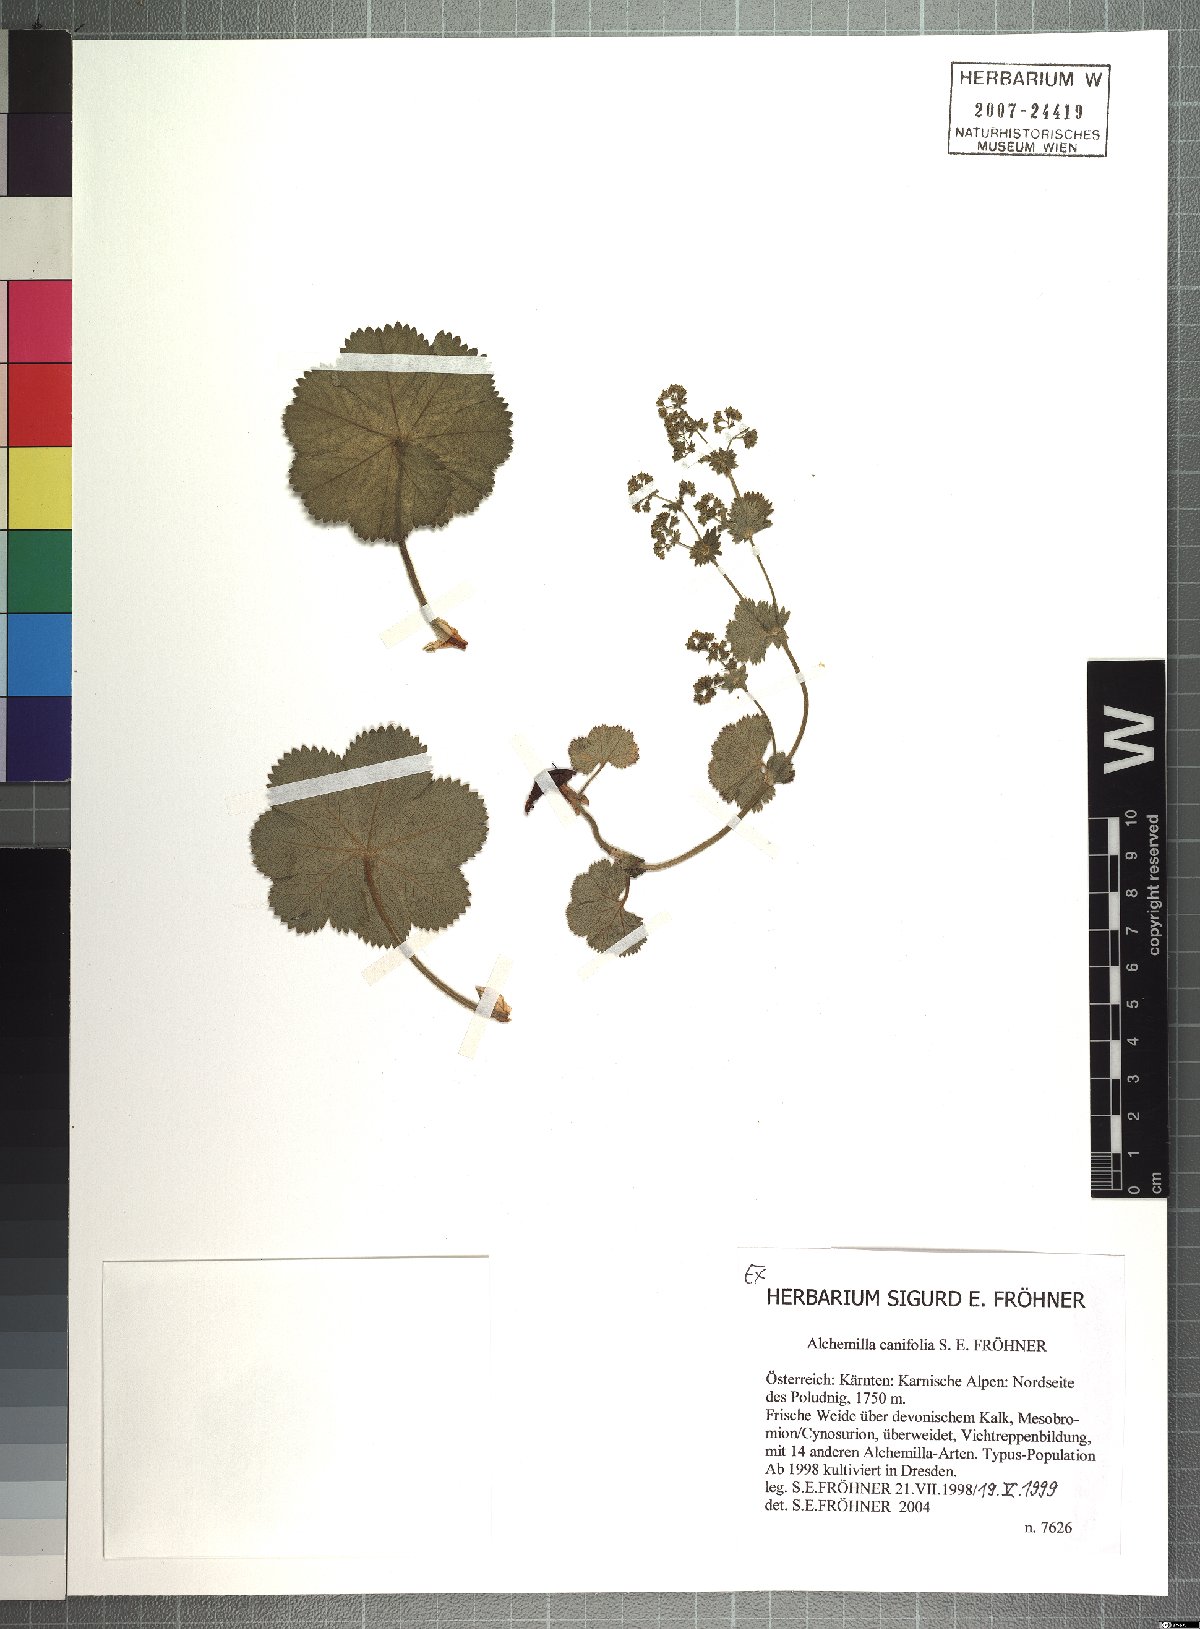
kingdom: Plantae
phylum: Tracheophyta
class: Magnoliopsida
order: Rosales
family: Rosaceae
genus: Alchemilla
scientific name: Alchemilla canifolia
